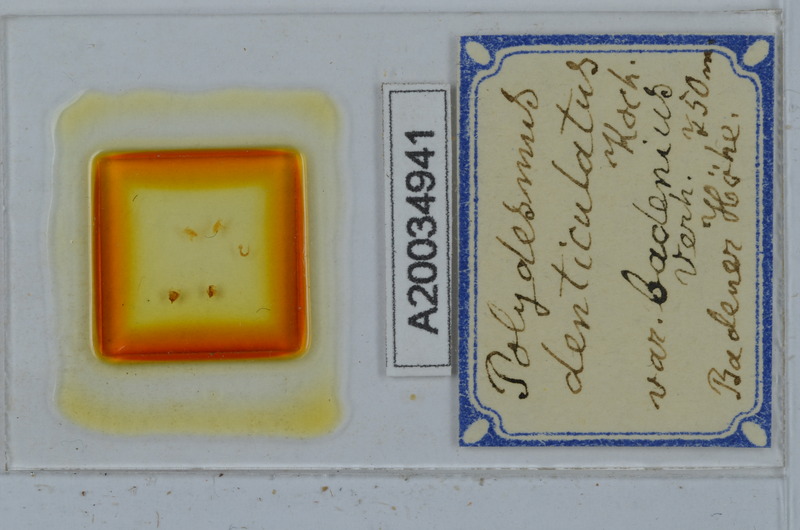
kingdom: Animalia
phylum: Arthropoda
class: Diplopoda
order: Polydesmida
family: Polydesmidae
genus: Polydesmus
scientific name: Polydesmus denticulatus
